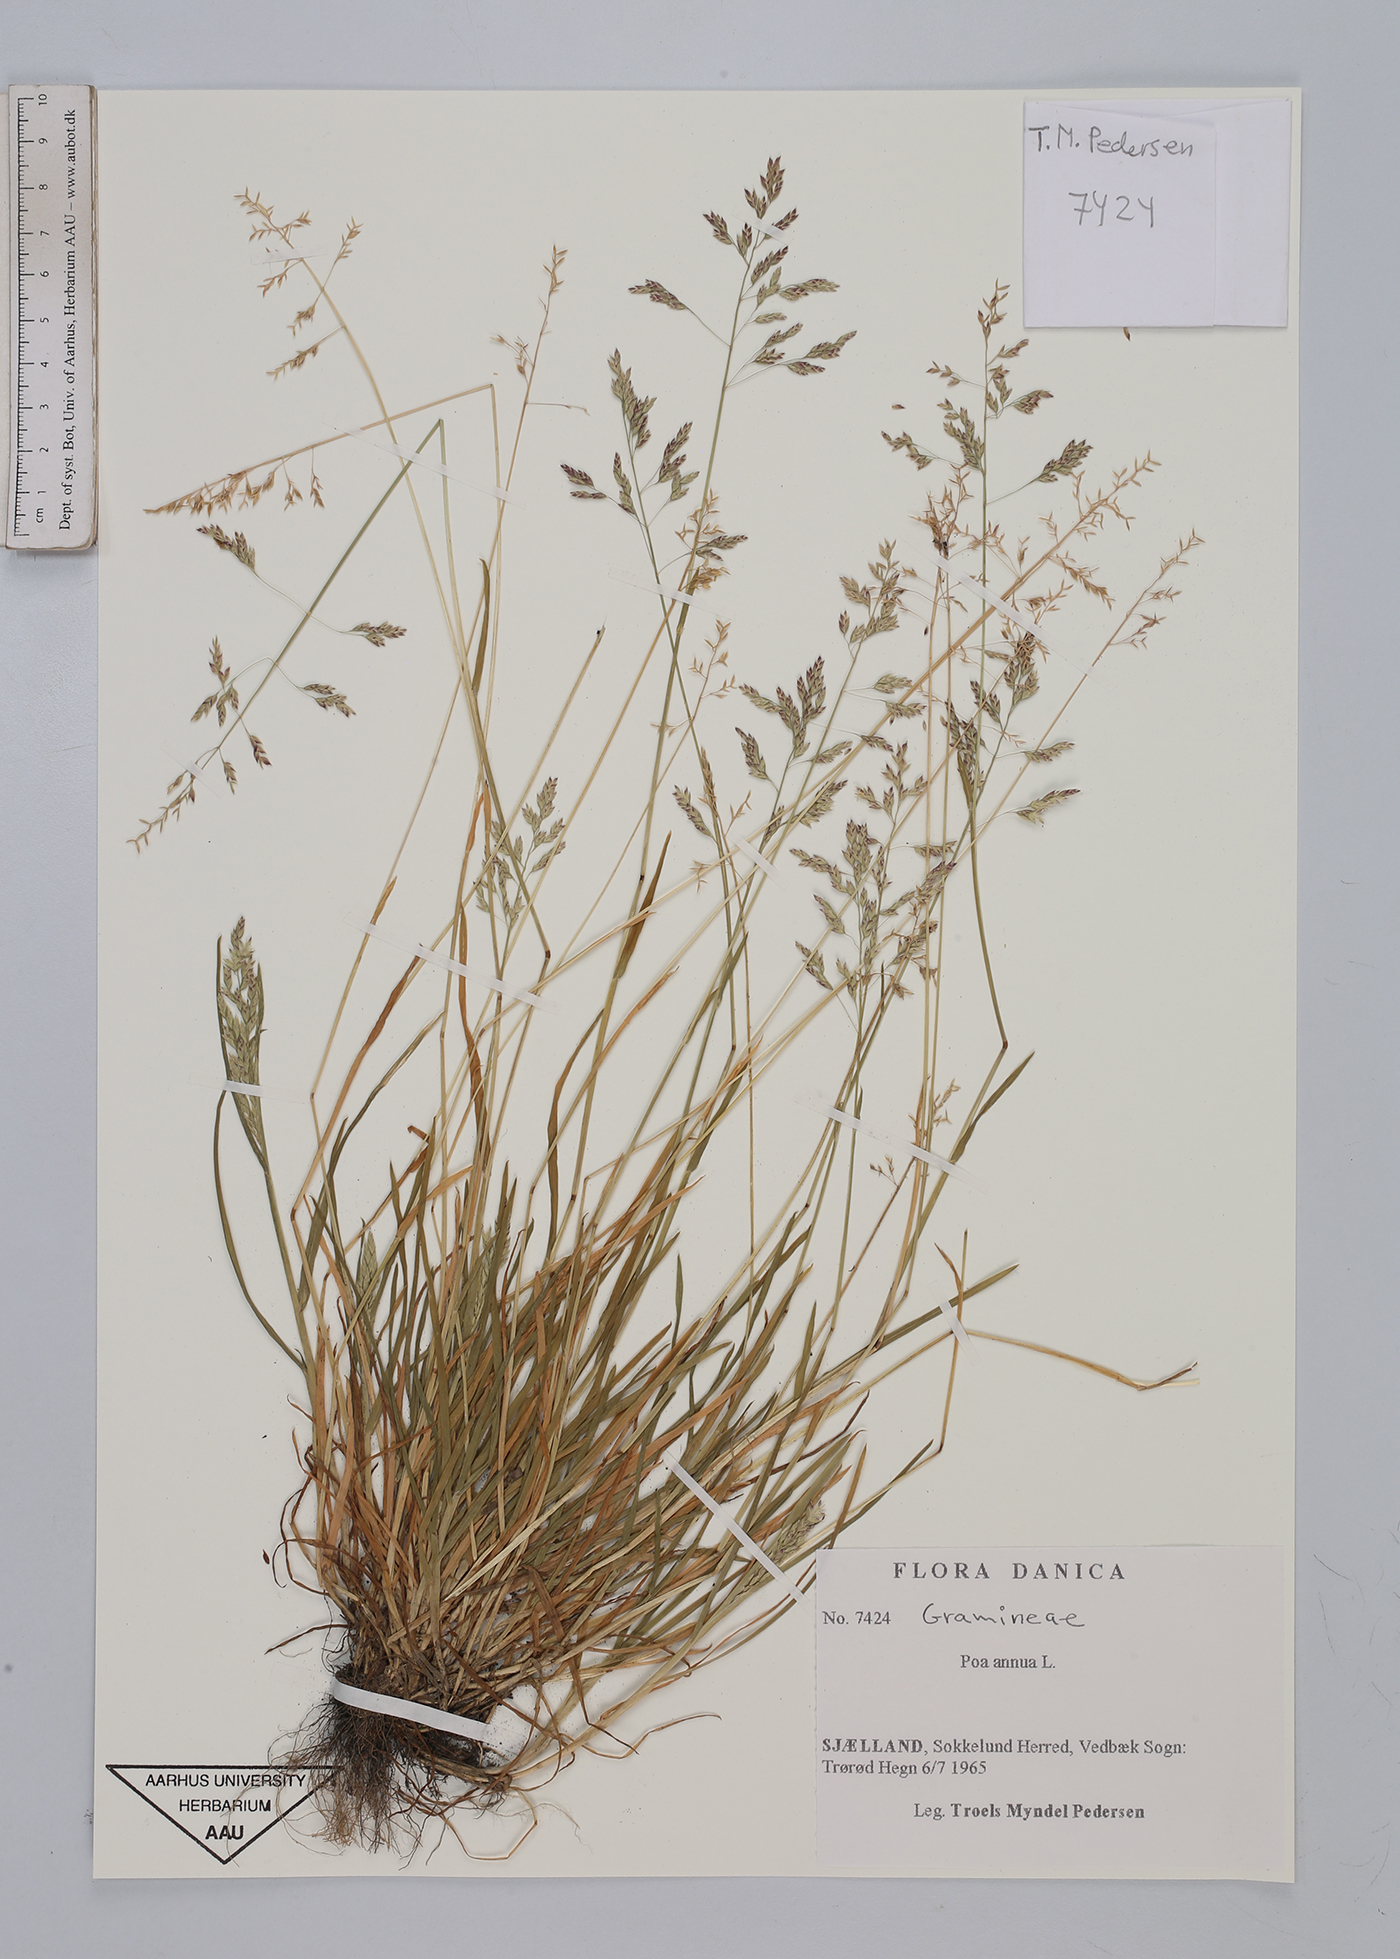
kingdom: Plantae
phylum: Tracheophyta
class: Liliopsida
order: Poales
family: Poaceae
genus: Poa
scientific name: Poa annua
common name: Annual bluegrass
